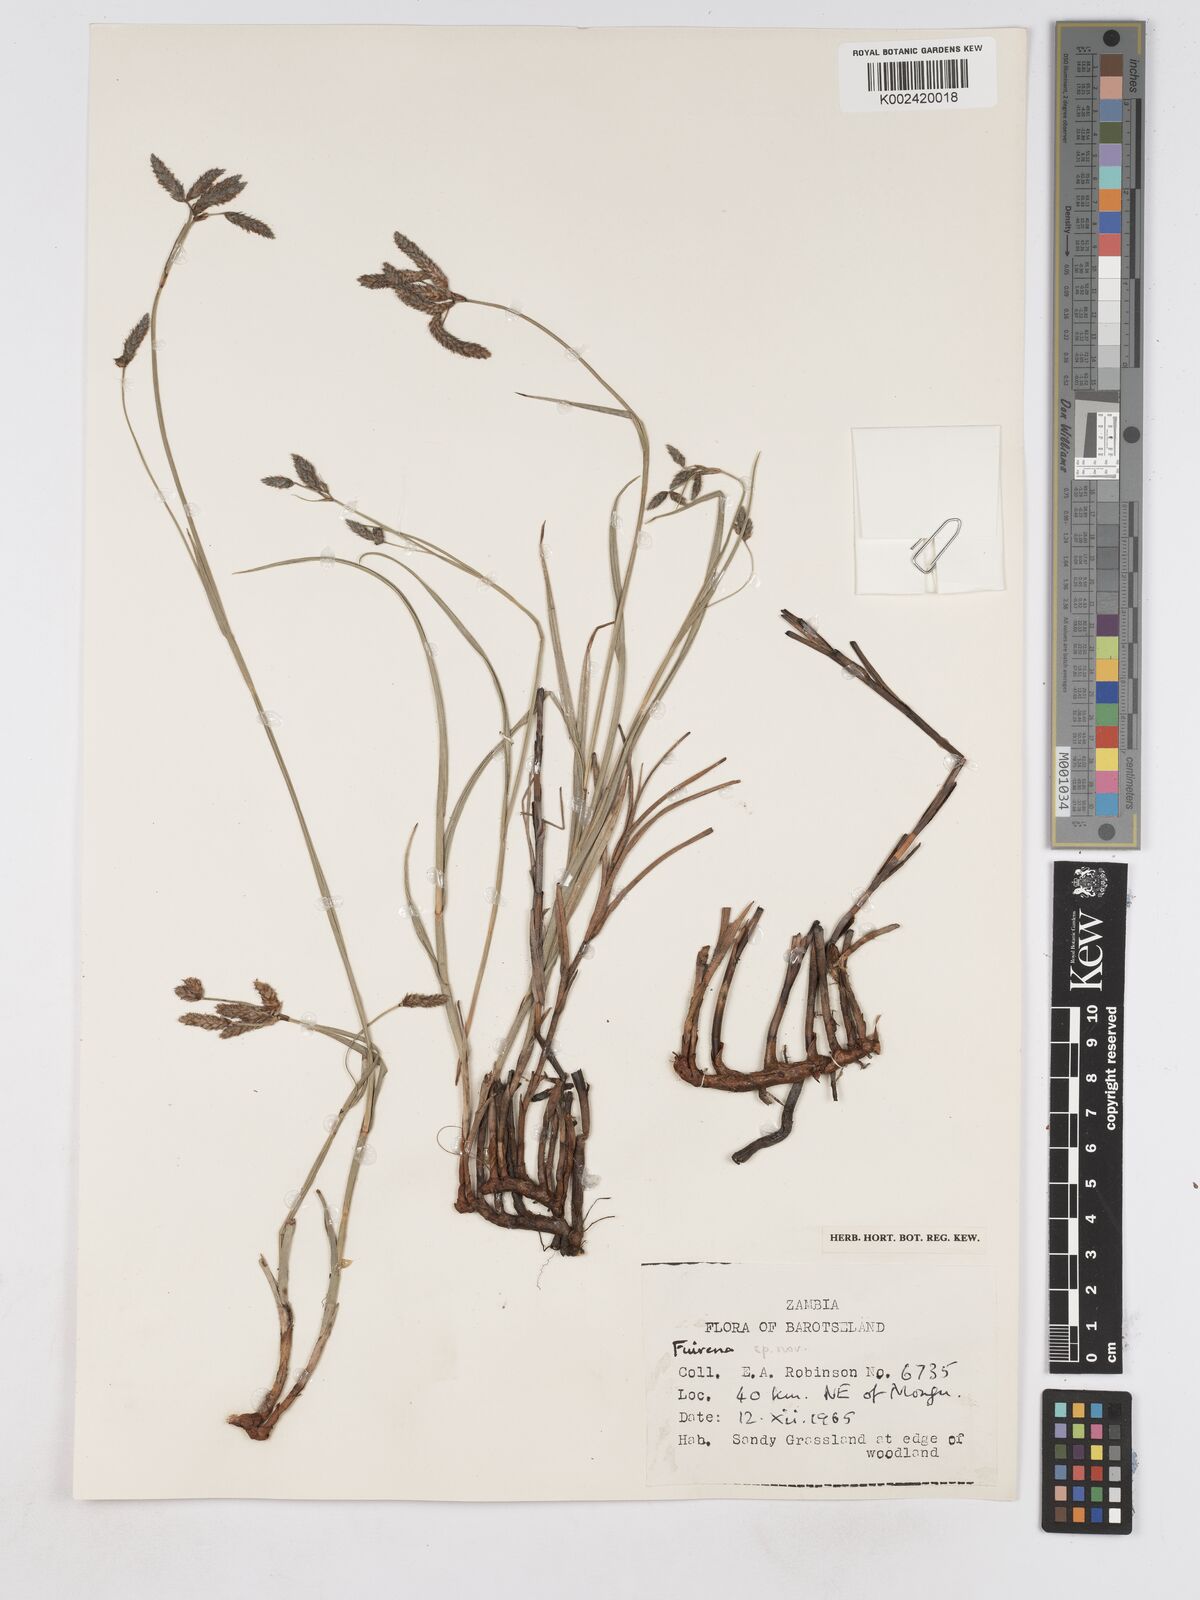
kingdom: Plantae
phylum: Tracheophyta
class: Liliopsida
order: Poales
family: Cyperaceae
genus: Fuirena
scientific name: Fuirena ecklonii
